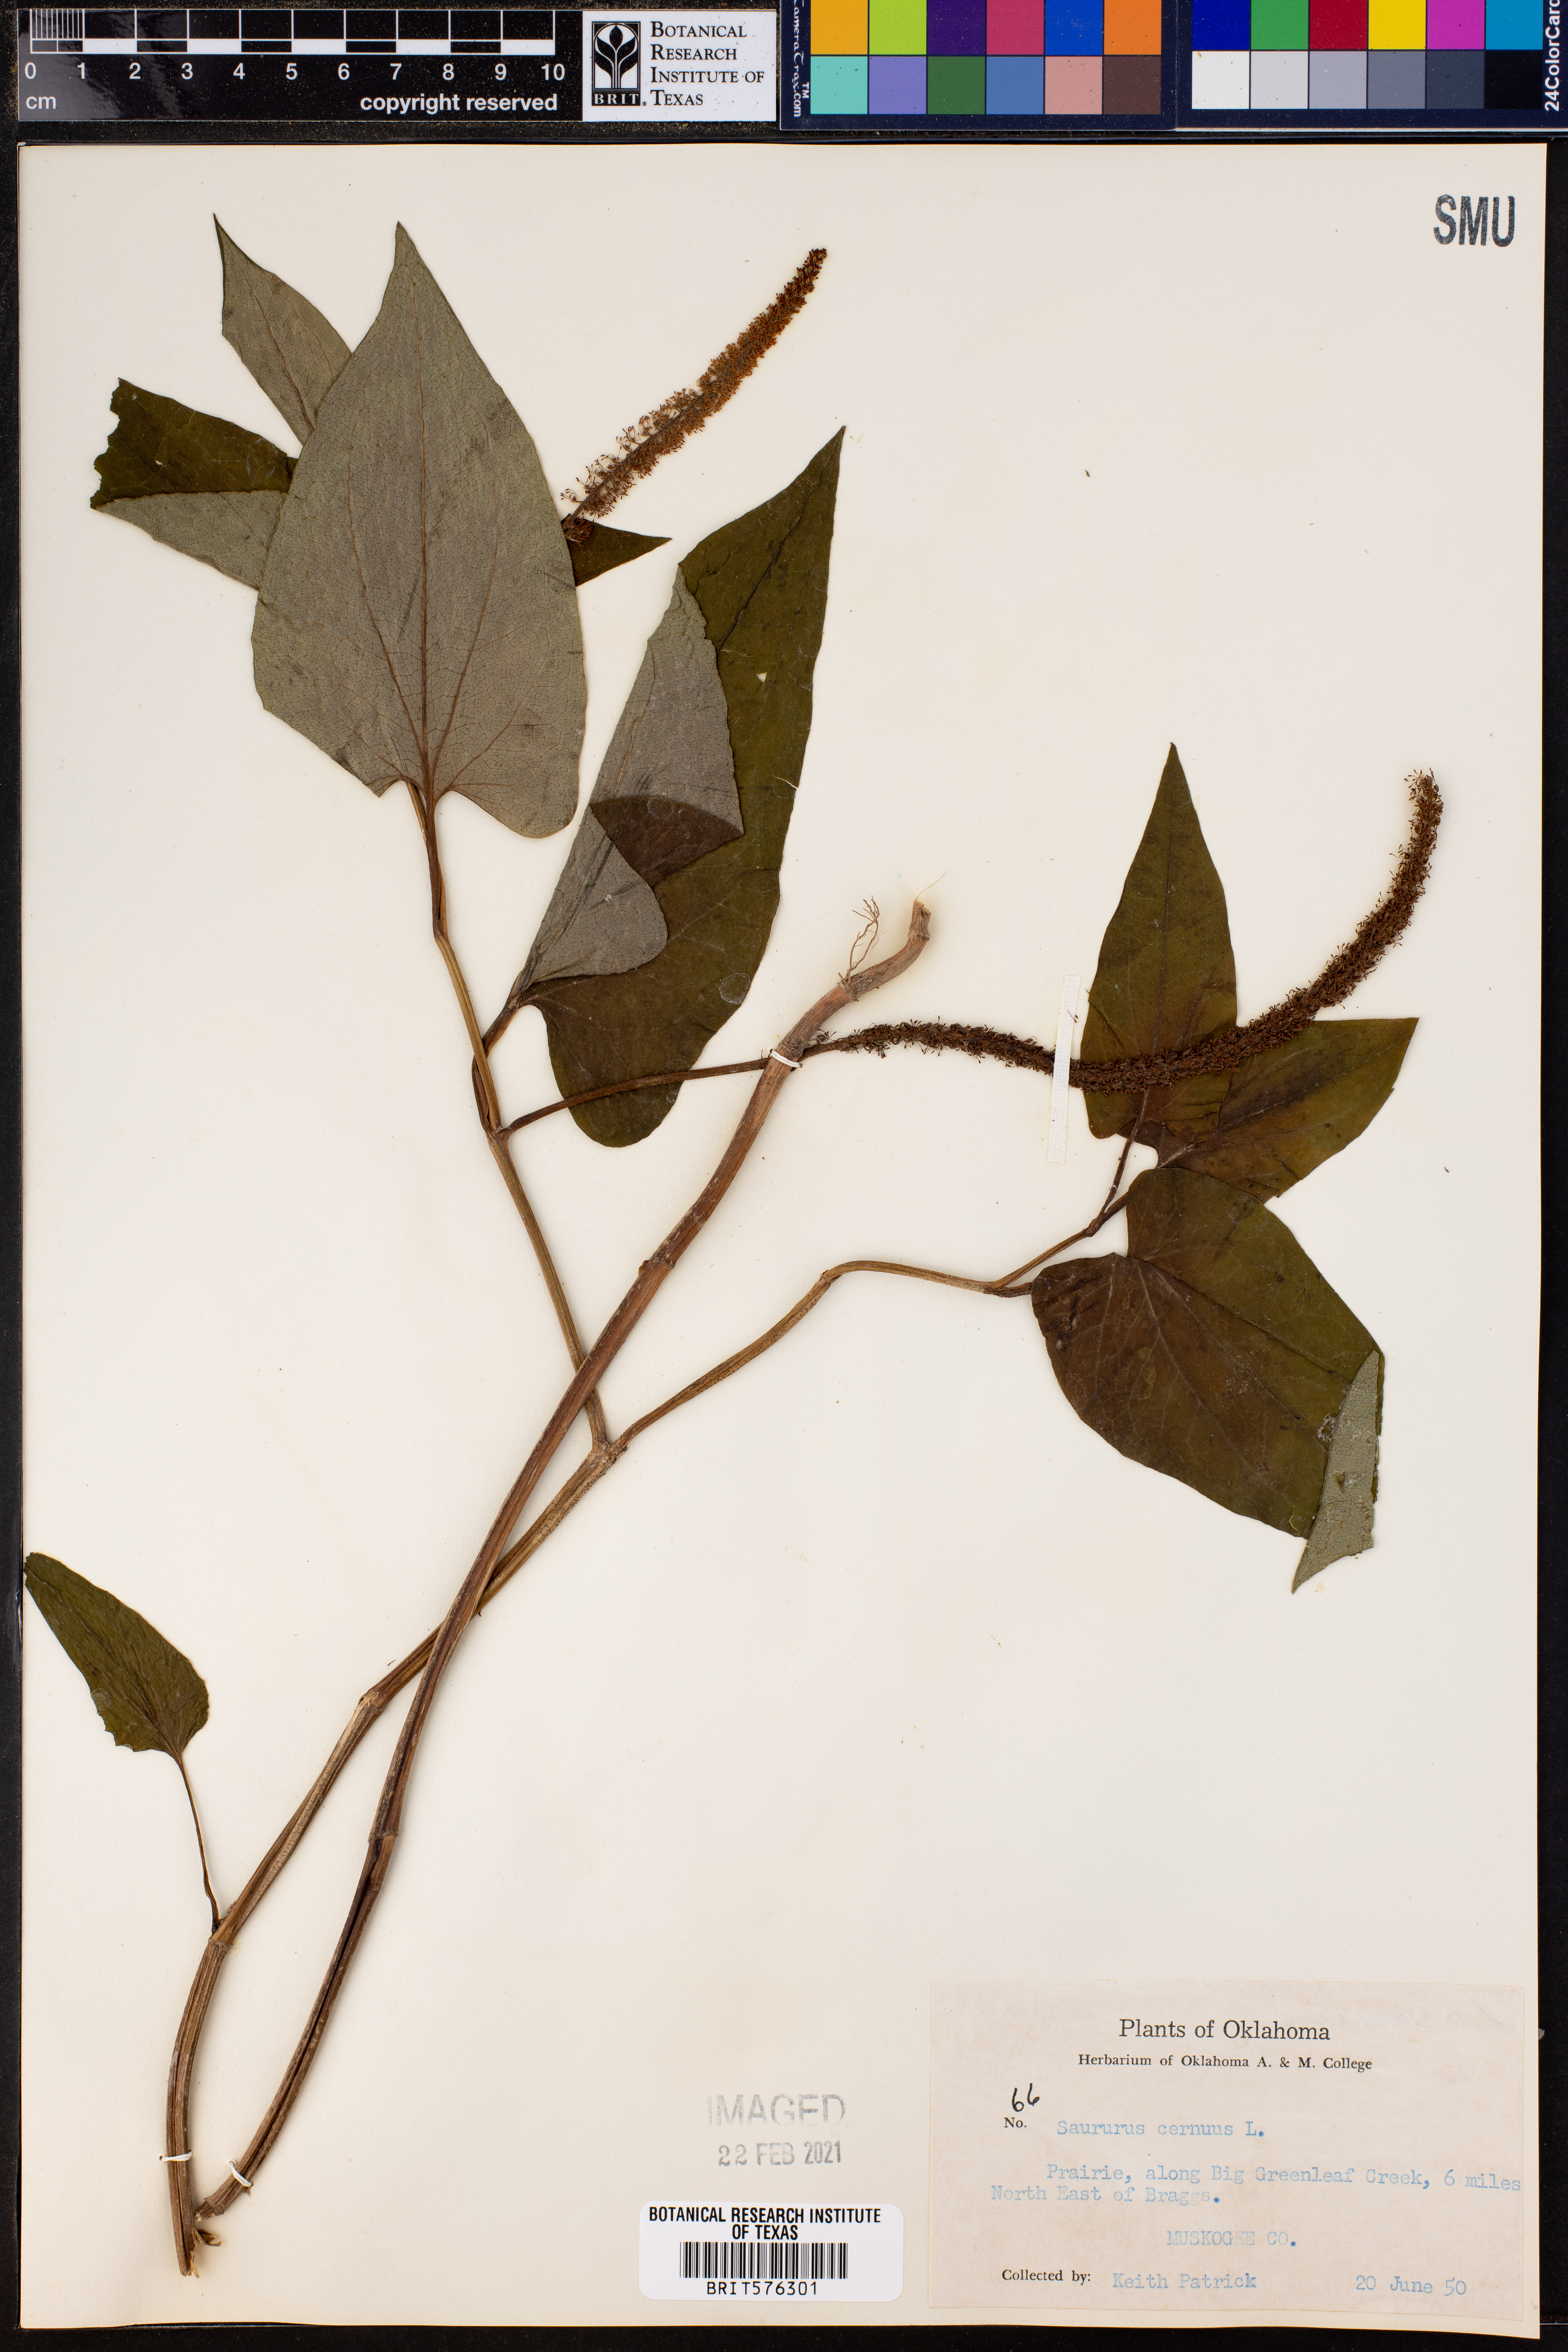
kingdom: Plantae
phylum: Tracheophyta
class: Magnoliopsida
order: Piperales
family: Saururaceae
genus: Saururus
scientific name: Saururus cernuus
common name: Lizard's-tail
